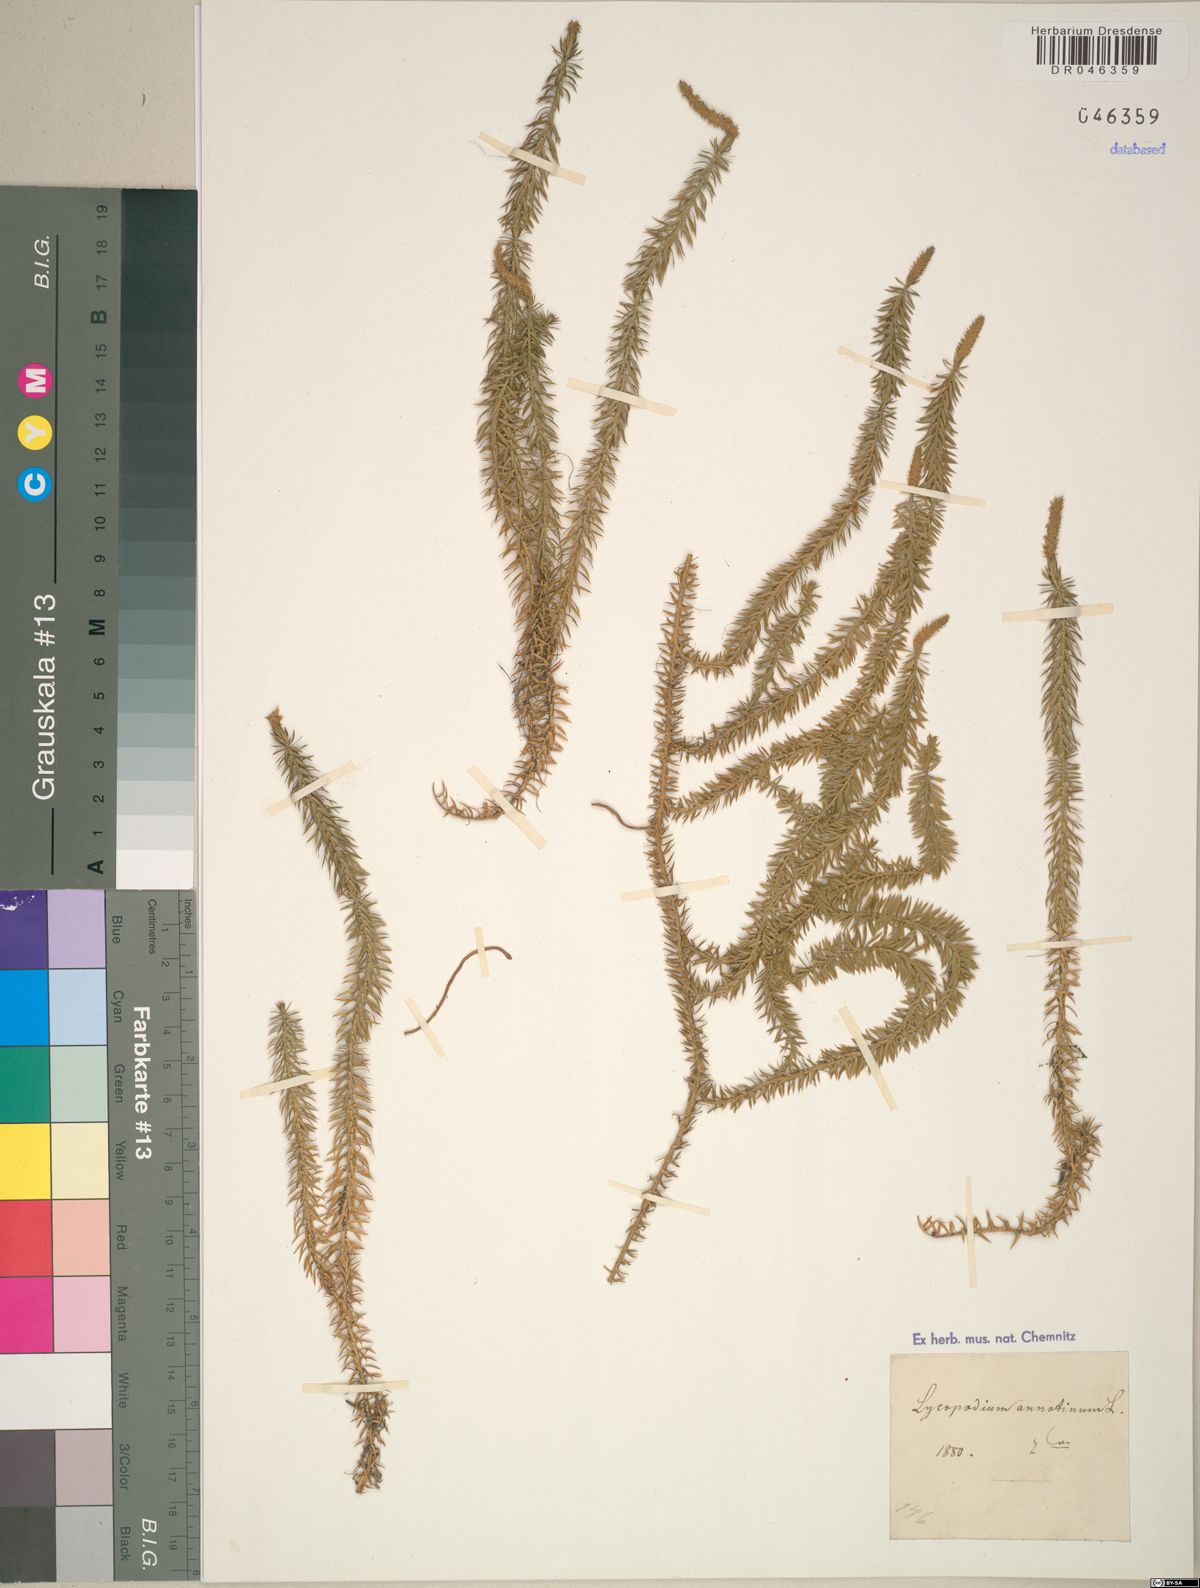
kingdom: Plantae
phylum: Tracheophyta
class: Lycopodiopsida
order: Lycopodiales
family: Lycopodiaceae
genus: Spinulum
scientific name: Spinulum annotinum
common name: Interrupted club-moss
